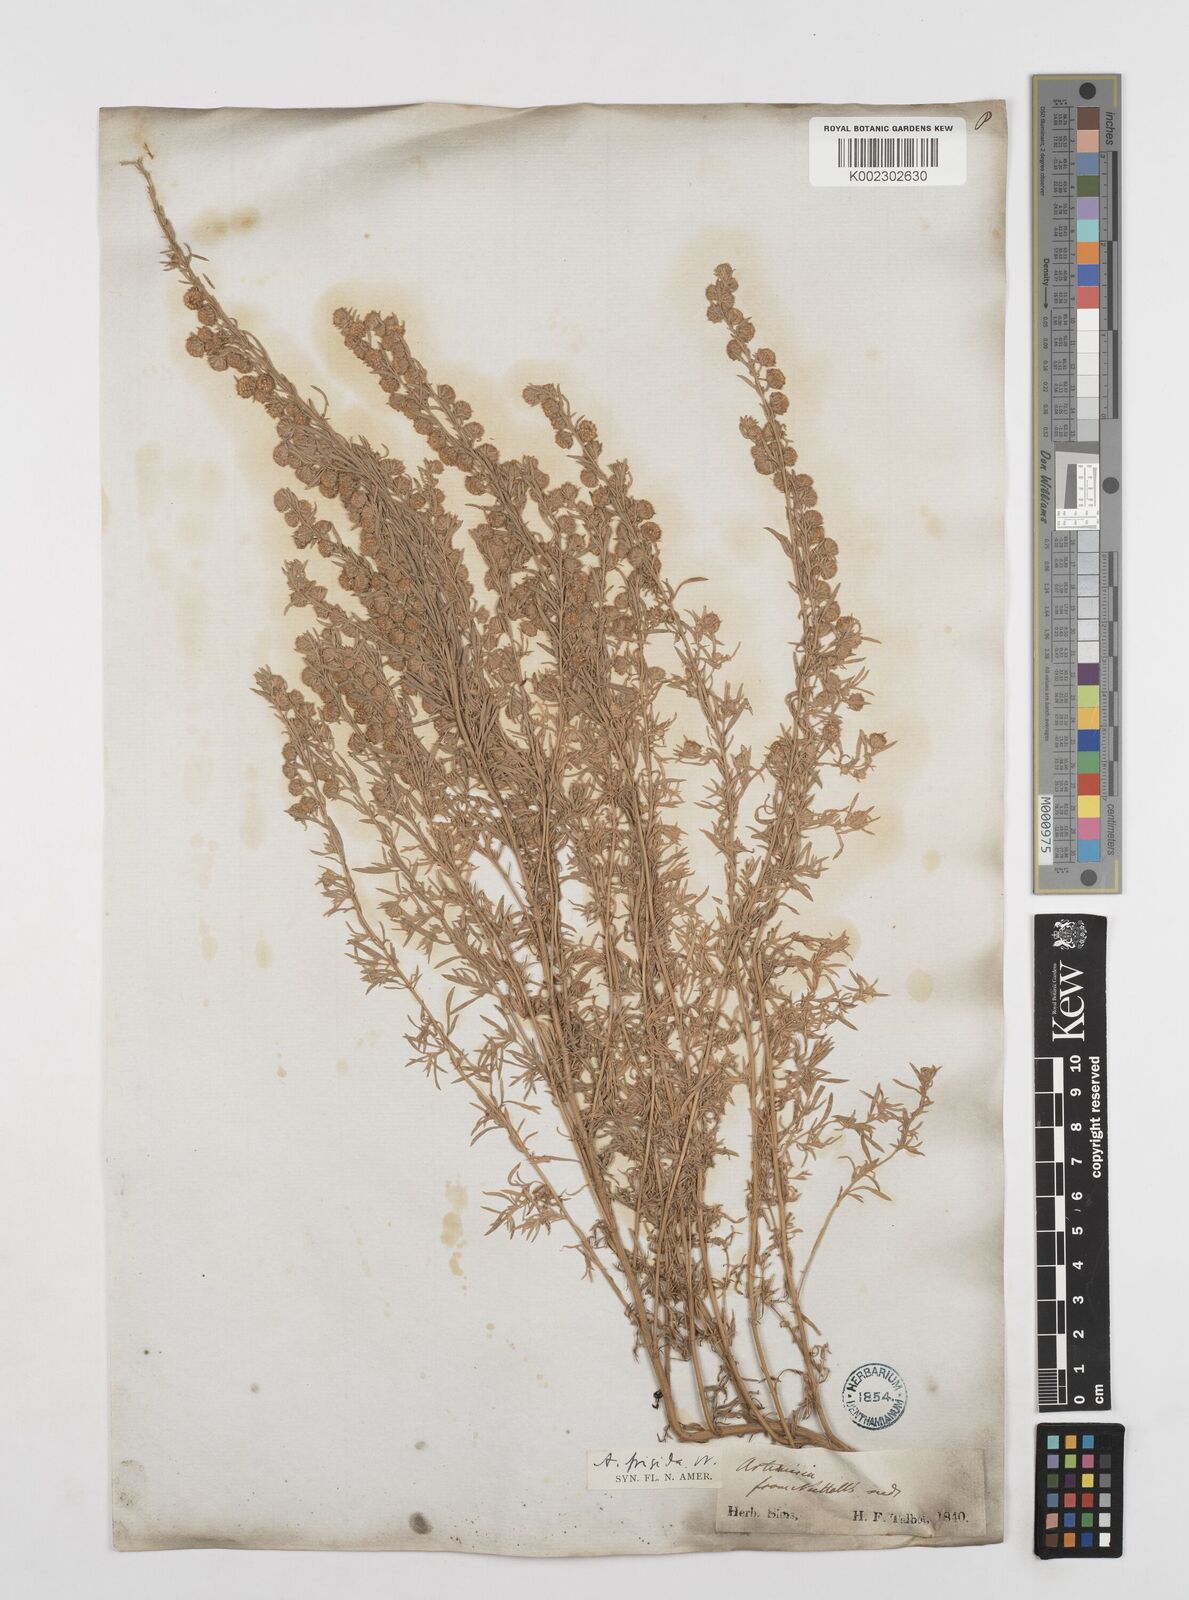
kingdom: Plantae
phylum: Tracheophyta
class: Magnoliopsida
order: Asterales
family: Asteraceae
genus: Artemisia
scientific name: Artemisia frigida
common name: Prairie sagewort
